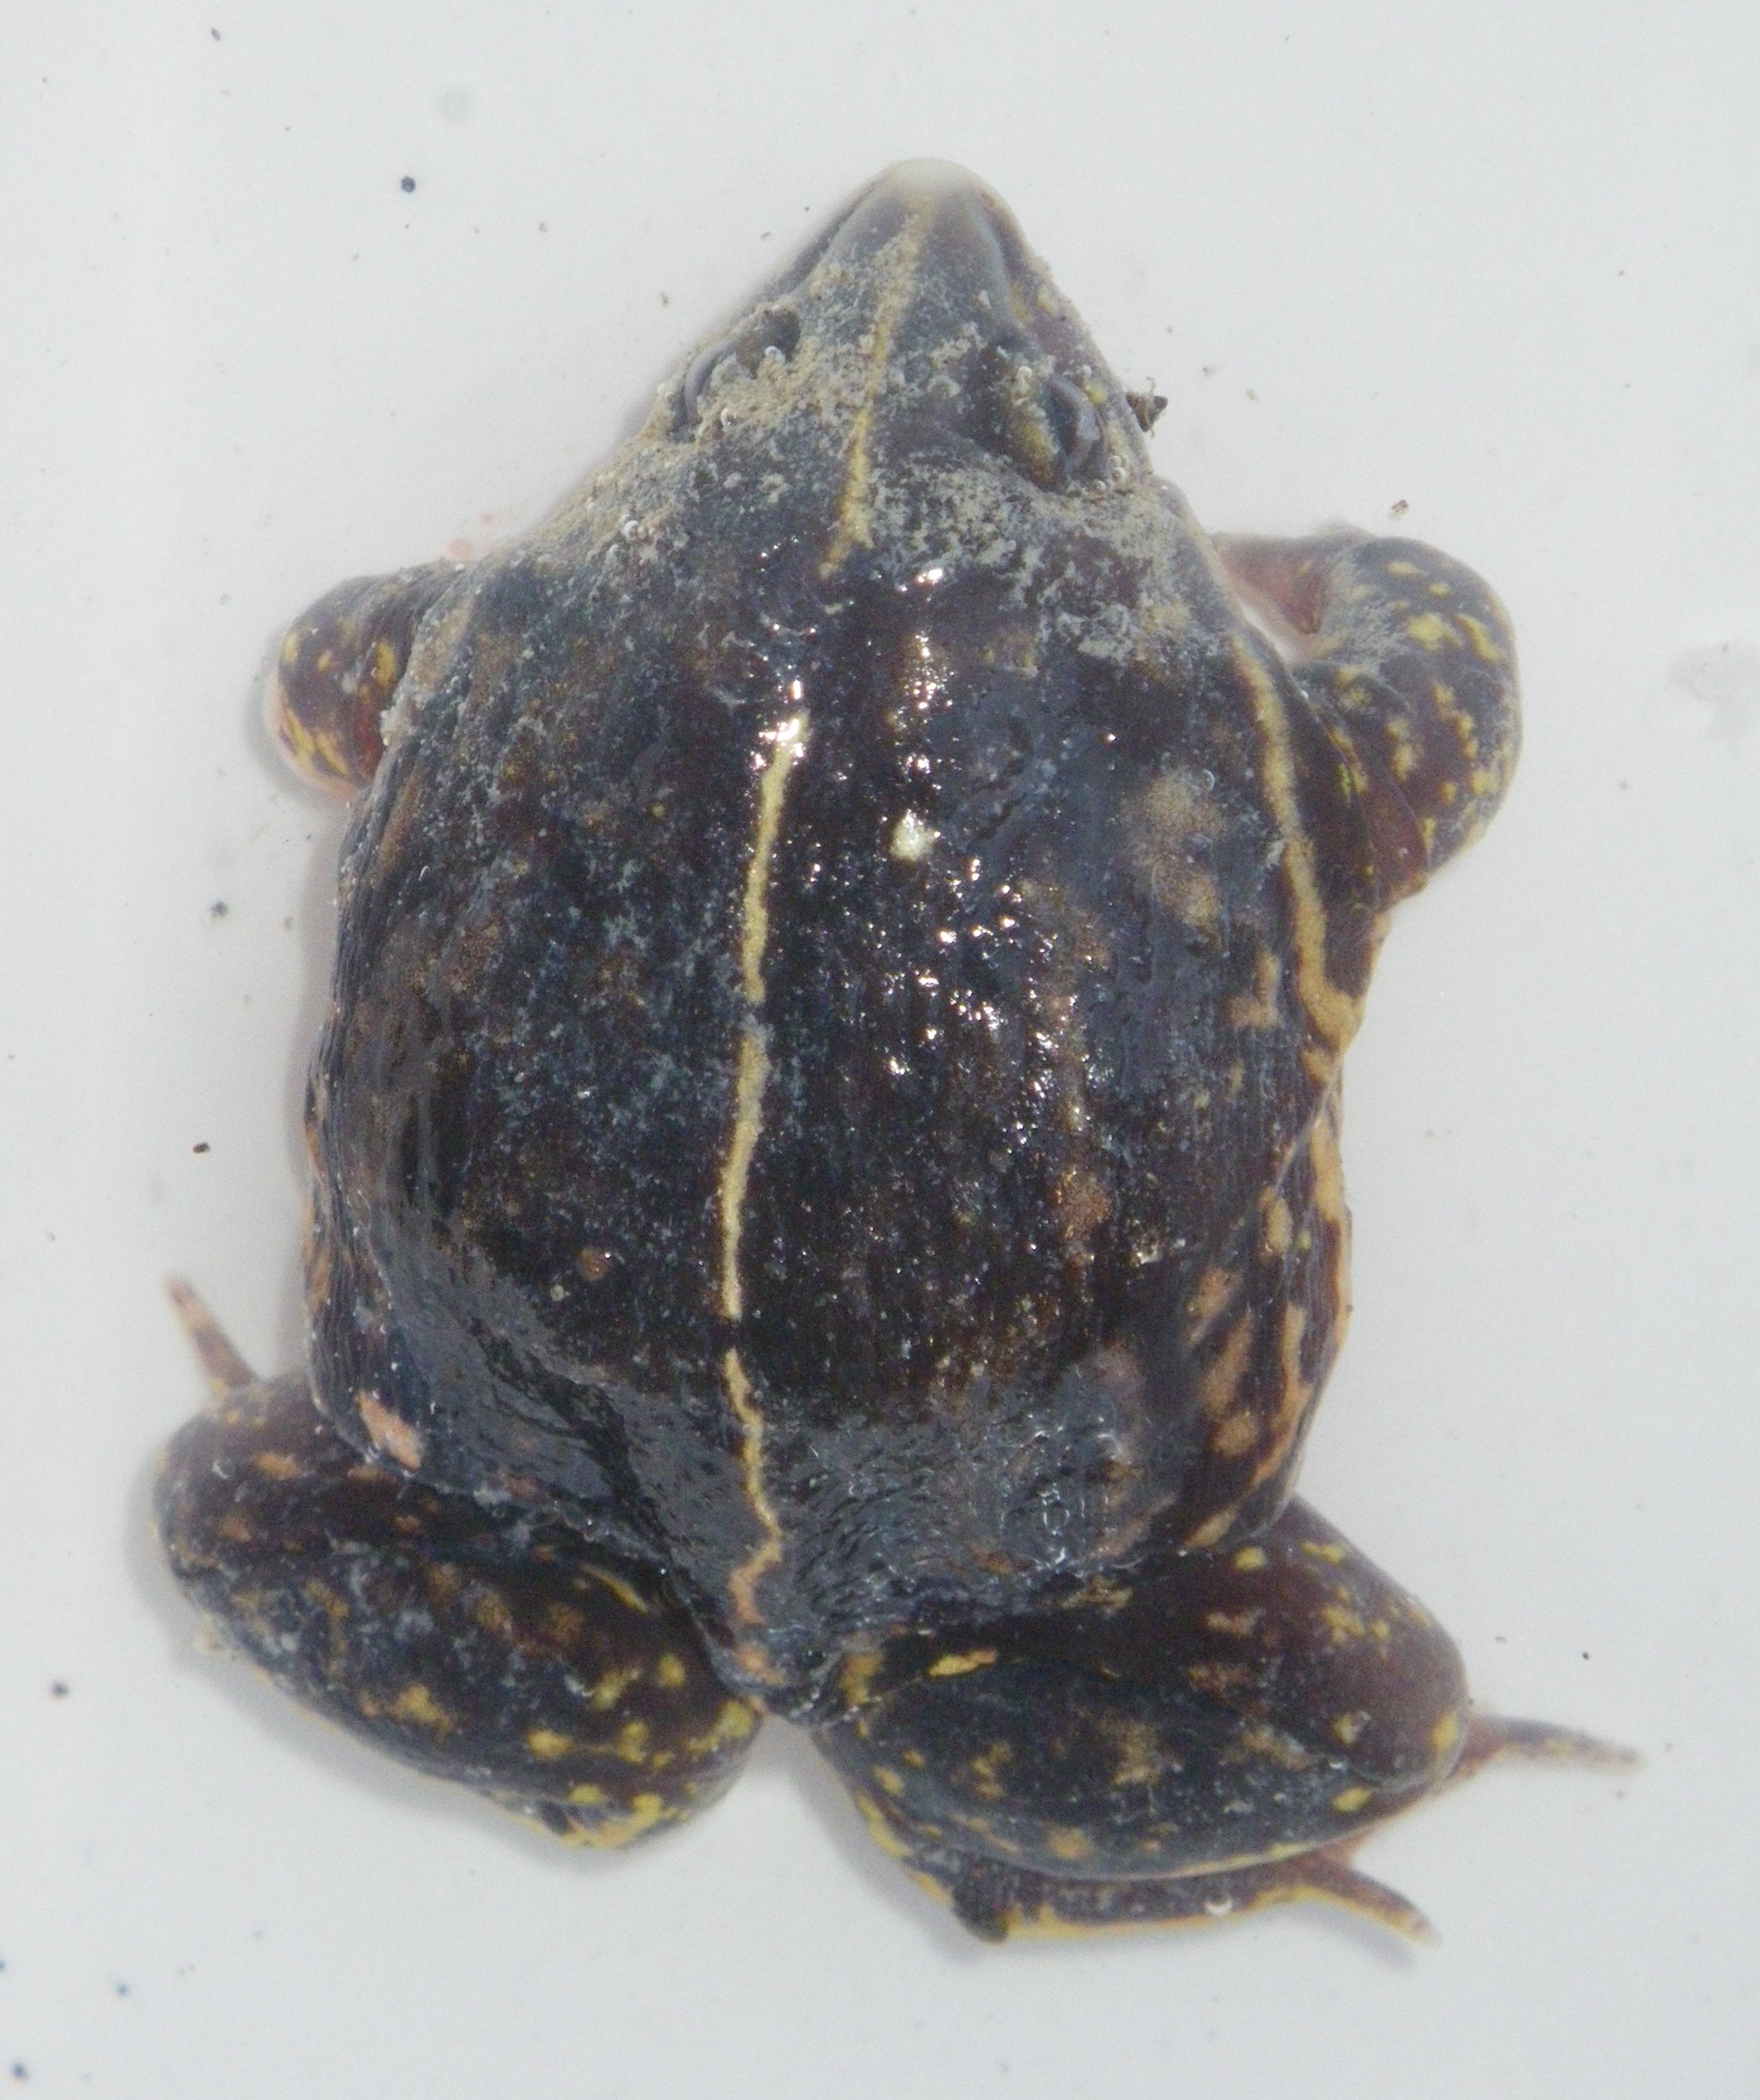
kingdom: Animalia
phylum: Chordata
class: Amphibia
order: Anura
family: Hemisotidae
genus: Hemisus
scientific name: Hemisus guineensis
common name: Guinea snout-burrower
